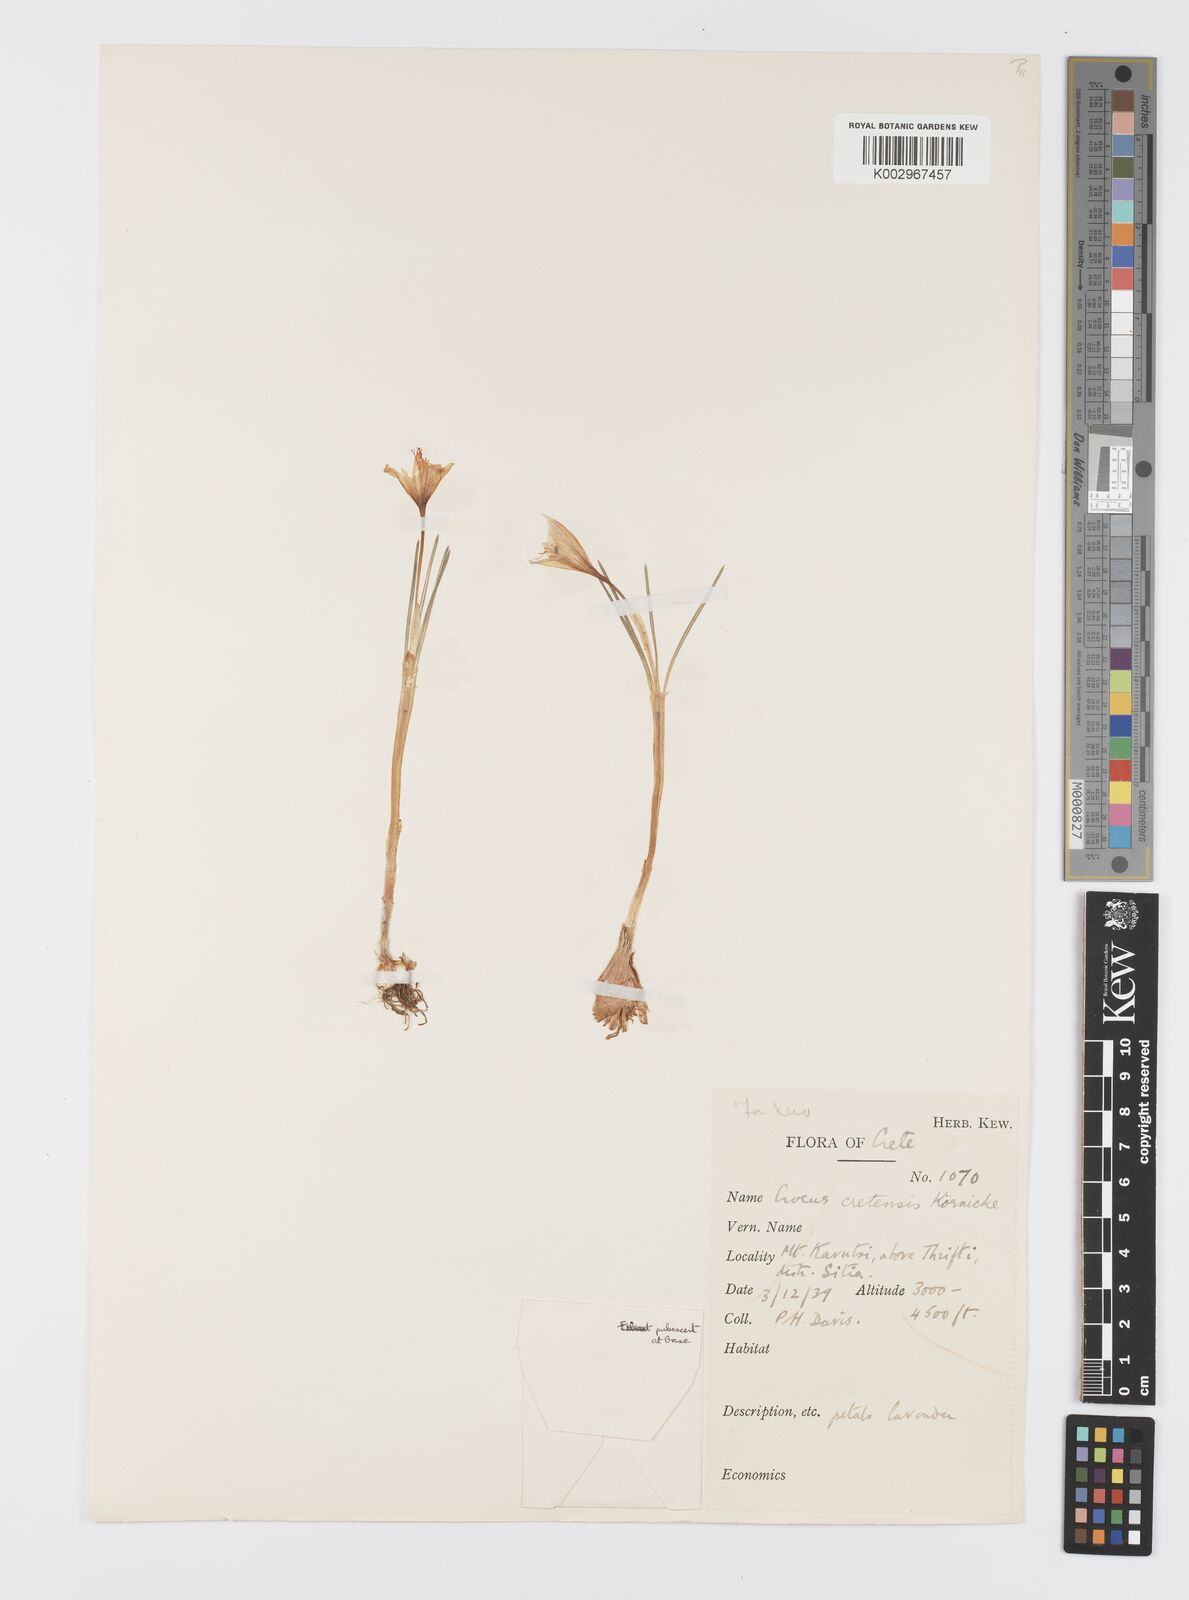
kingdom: Plantae
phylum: Tracheophyta
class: Liliopsida
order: Asparagales
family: Iridaceae
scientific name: Iridaceae
